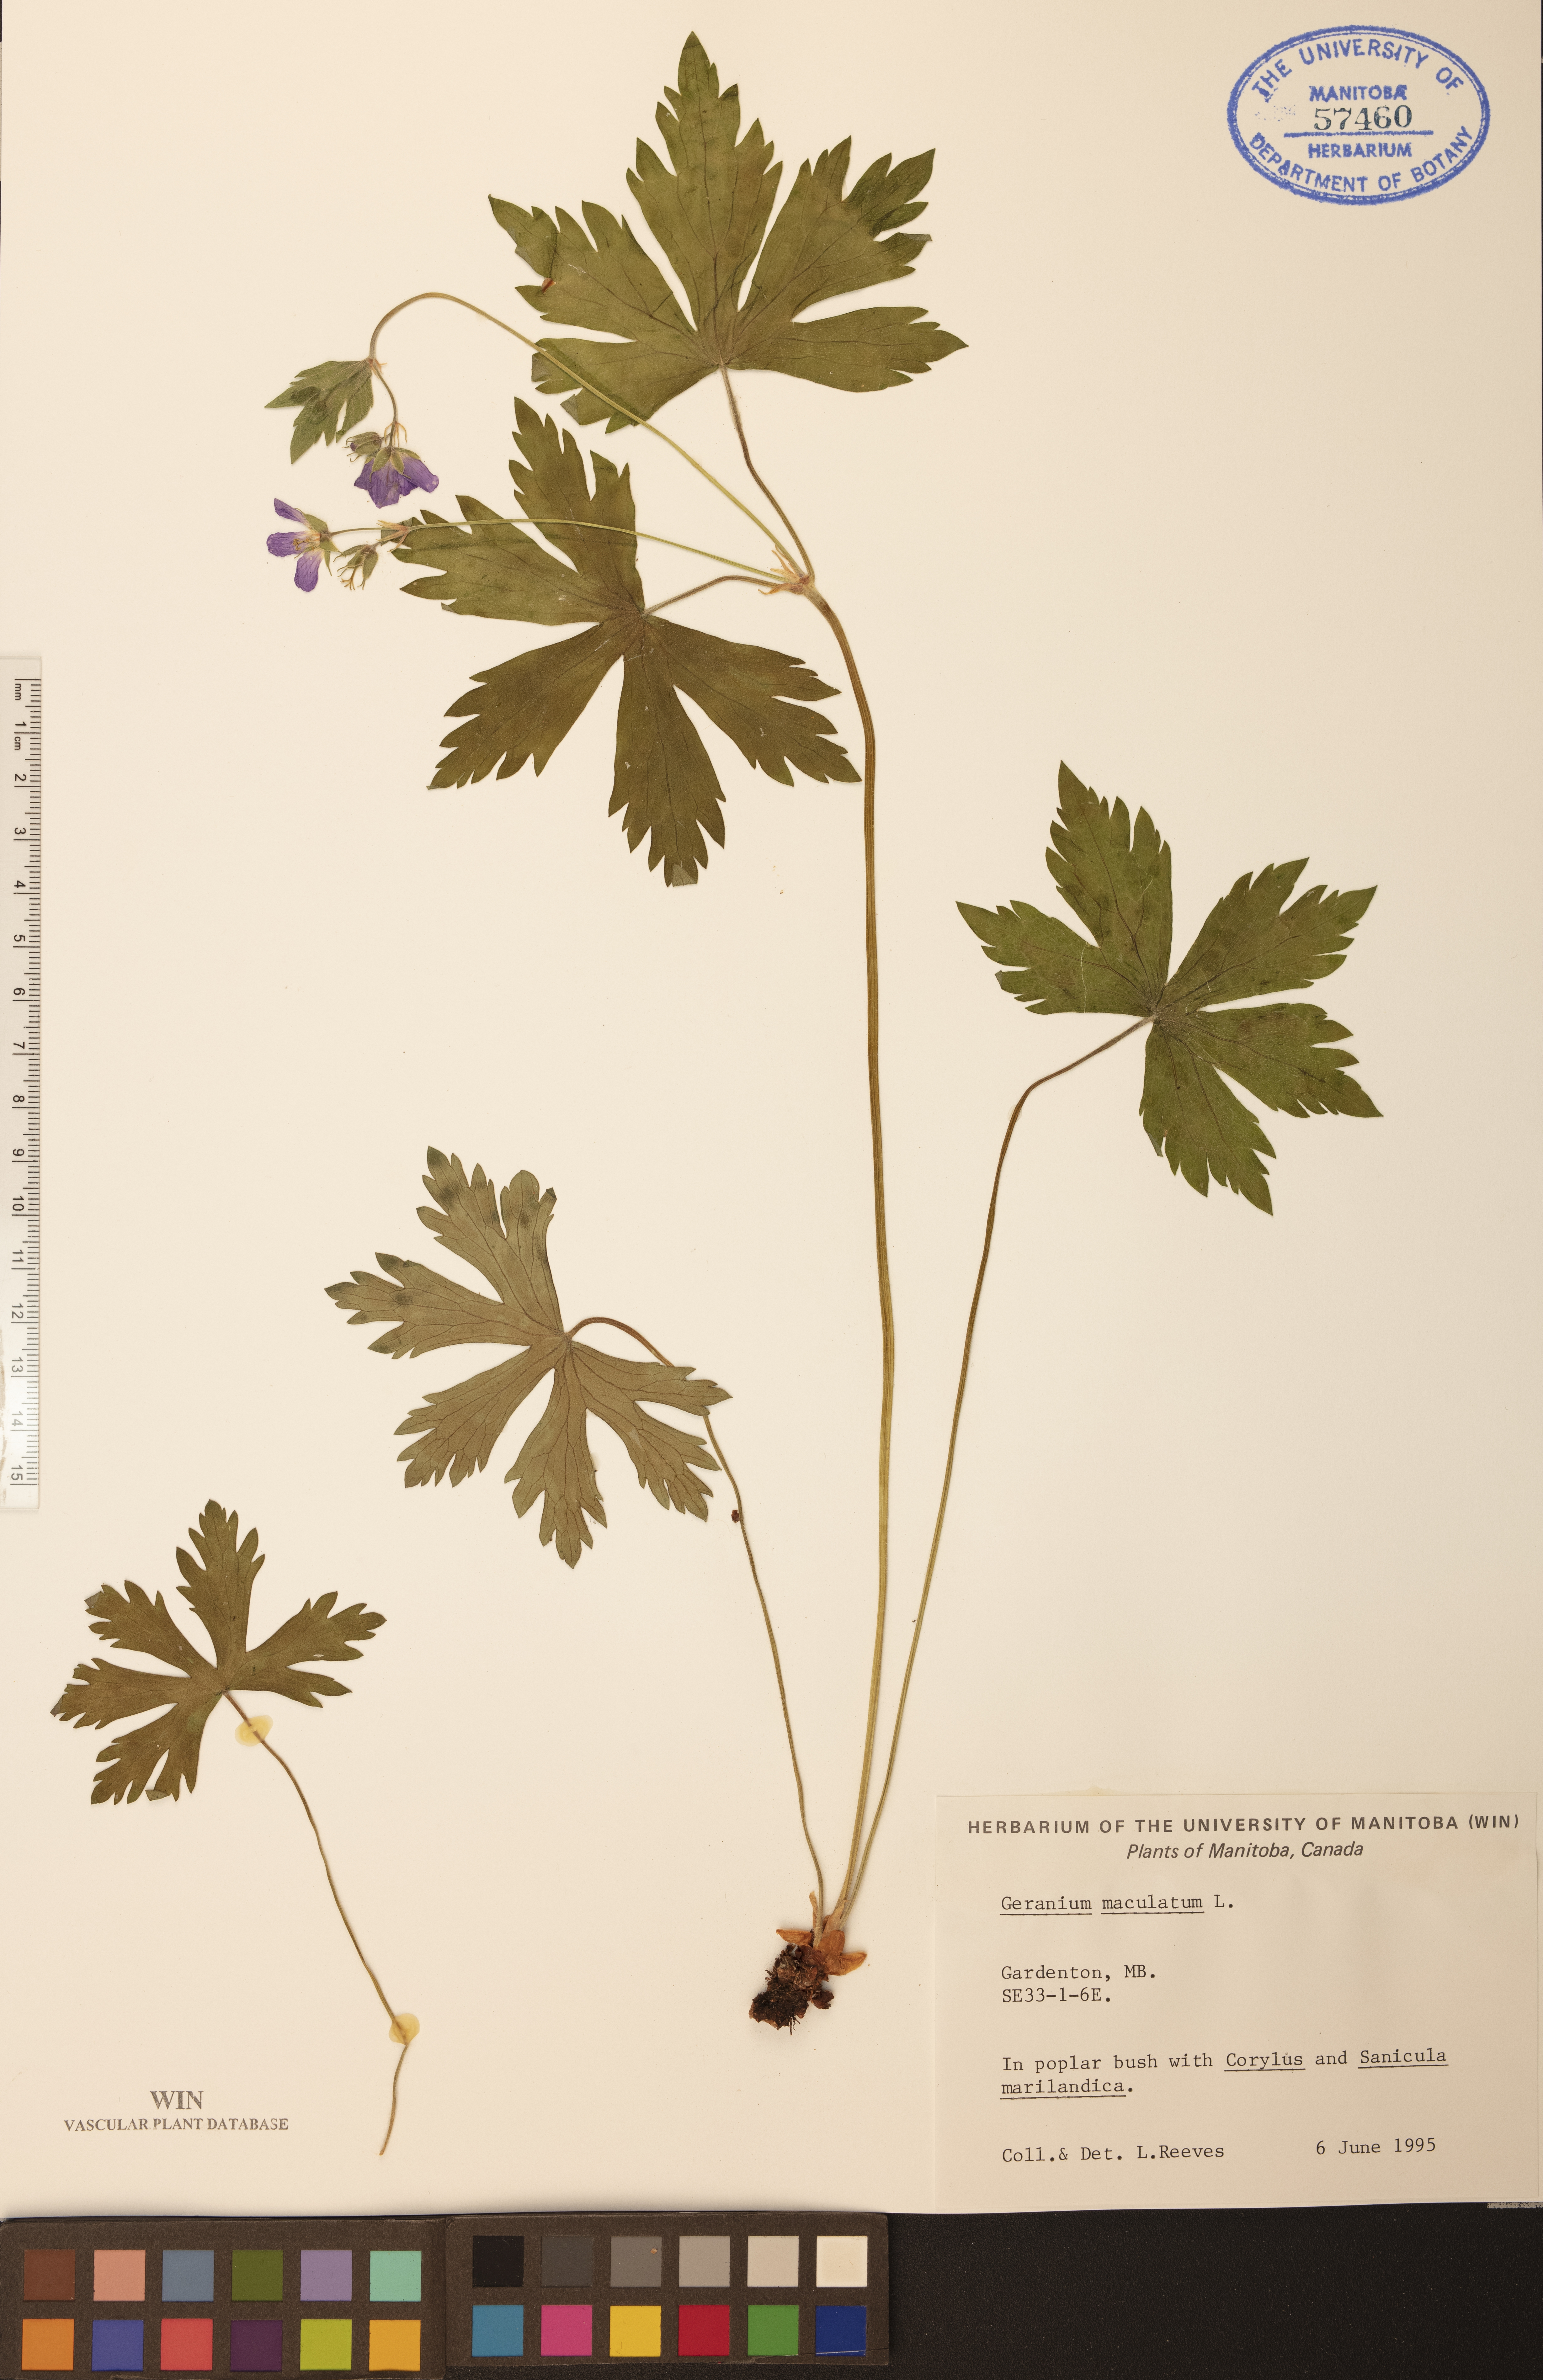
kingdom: Plantae
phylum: Tracheophyta
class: Magnoliopsida
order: Geraniales
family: Geraniaceae
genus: Geranium
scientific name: Geranium maculatum
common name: Spotted geranium
